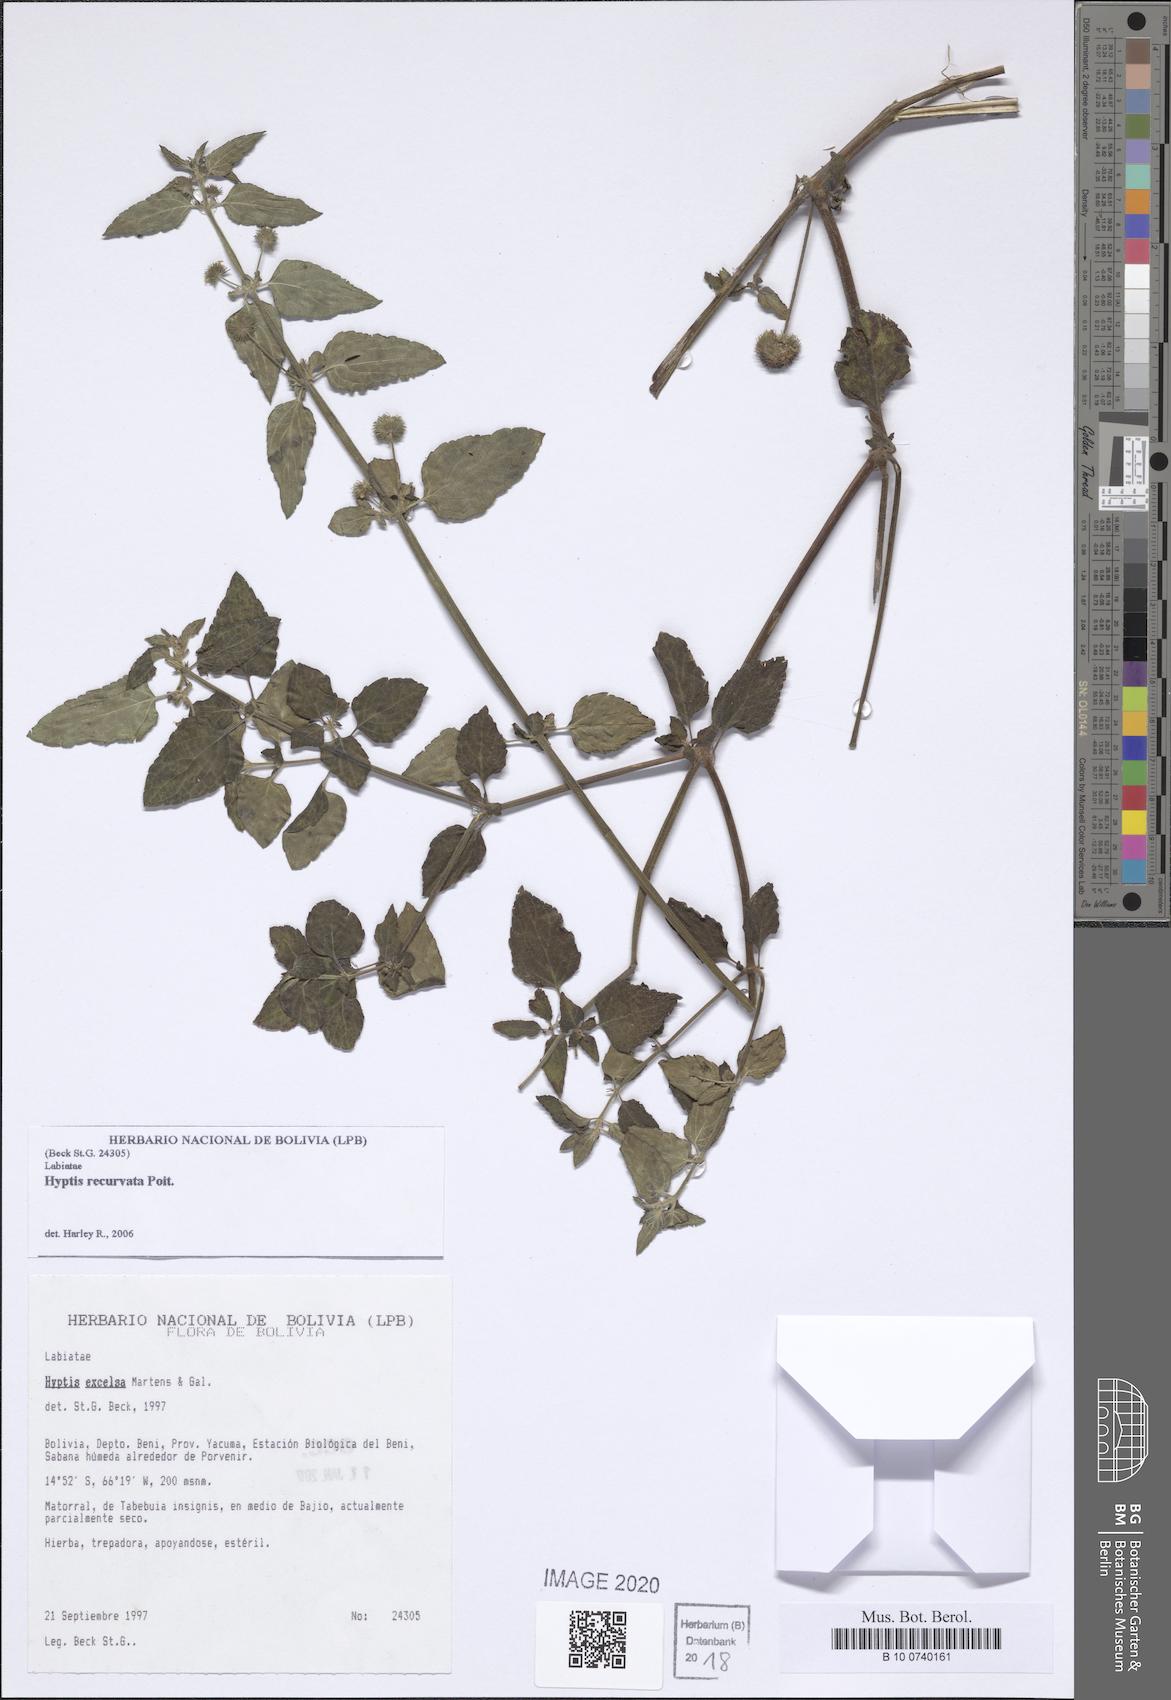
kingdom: Plantae
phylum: Tracheophyta
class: Magnoliopsida
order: Lamiales
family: Lamiaceae
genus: Hyptis
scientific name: Hyptis recurvata
